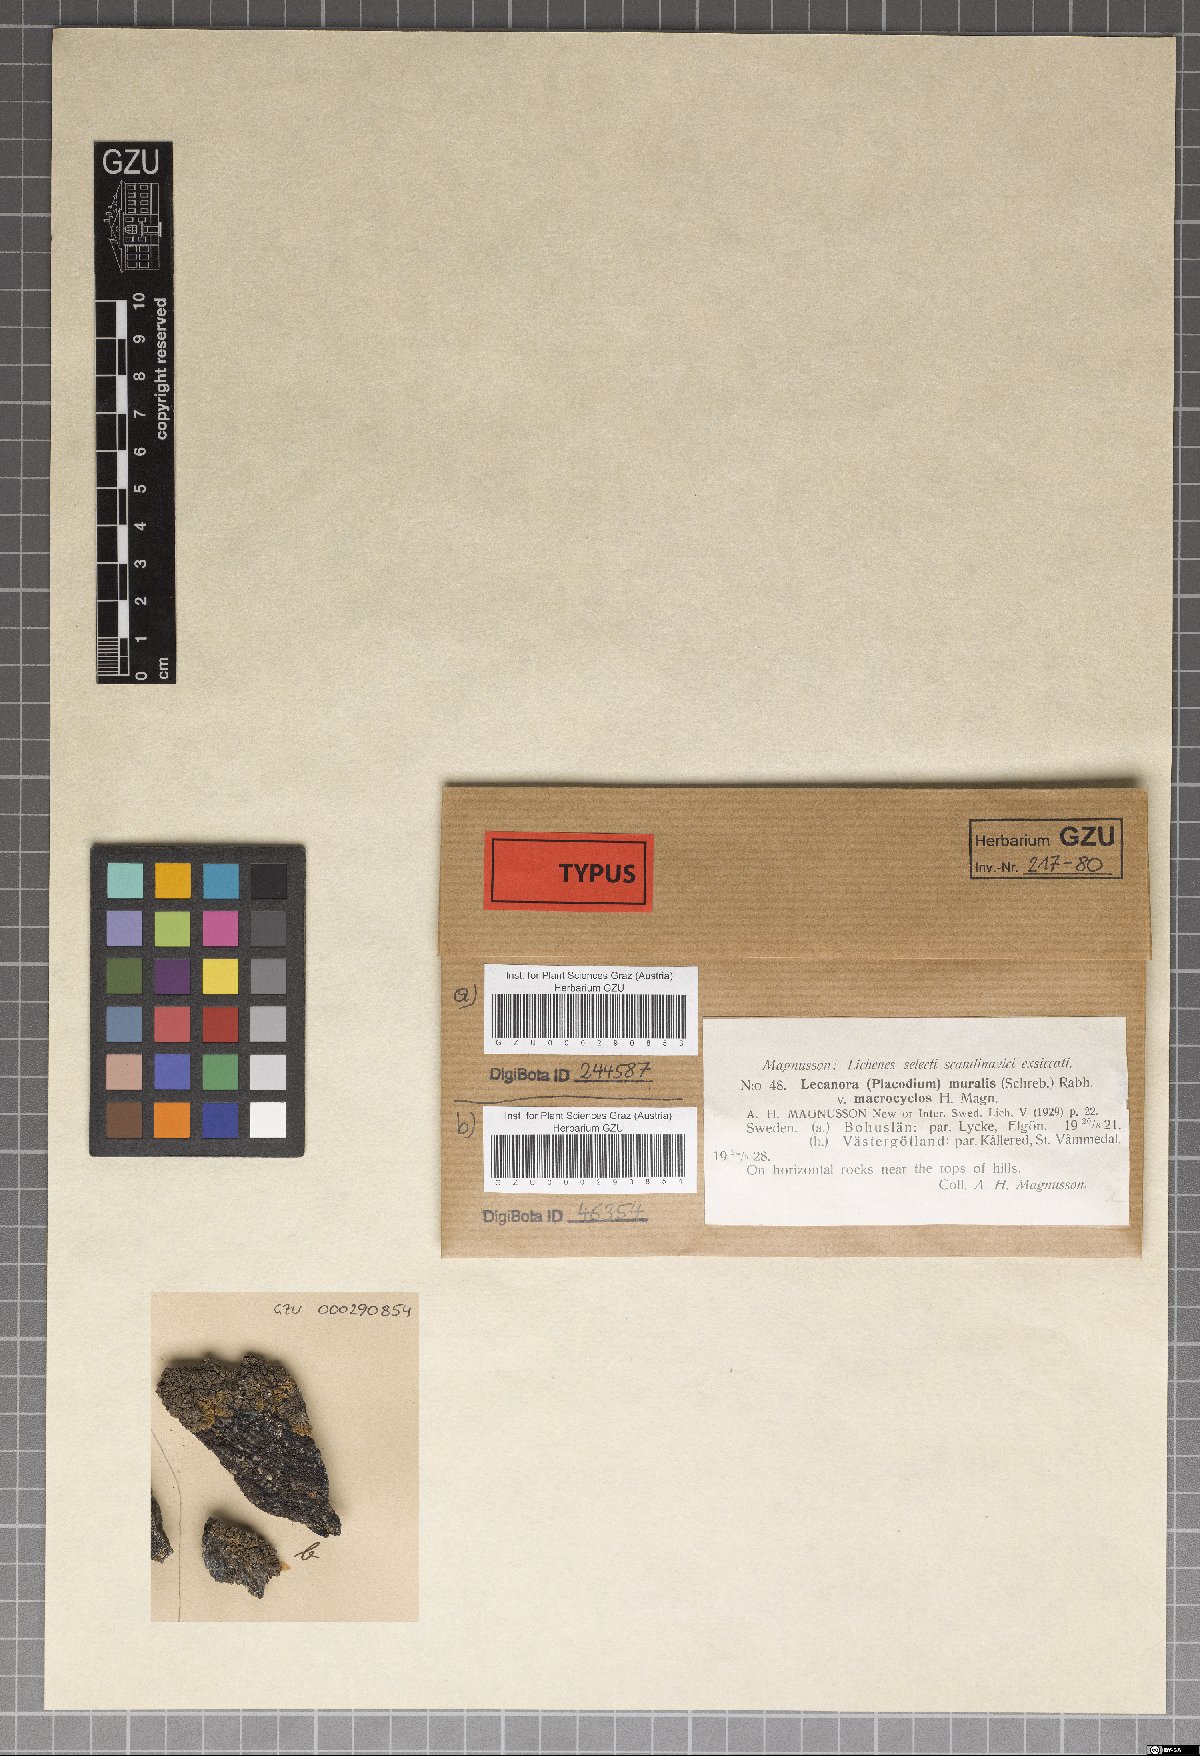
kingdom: Fungi
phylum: Ascomycota
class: Lecanoromycetes
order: Lecanorales
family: Lecanoraceae
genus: Protoparmeliopsis
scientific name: Protoparmeliopsis macrocyclos
